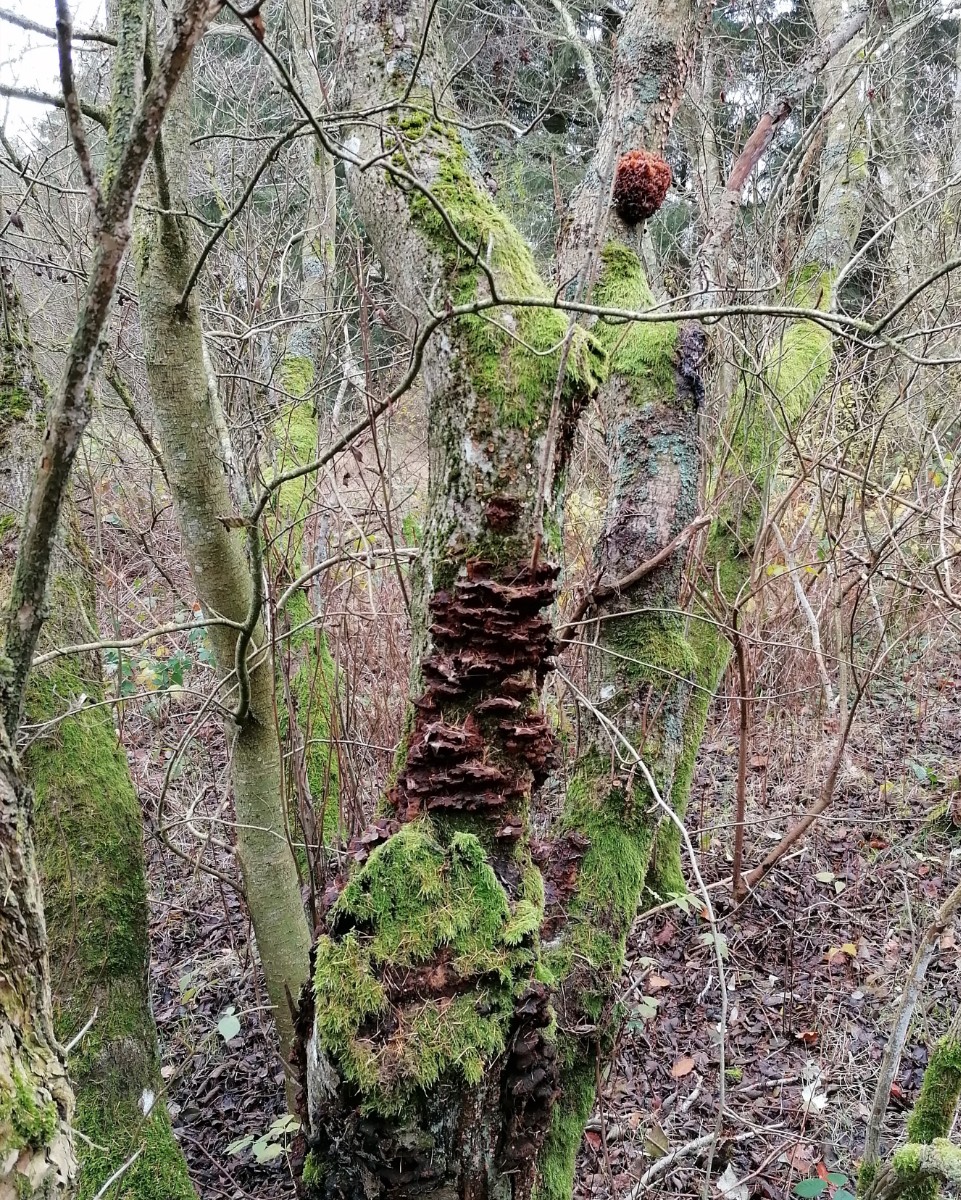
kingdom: Fungi
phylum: Basidiomycota
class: Tremellomycetes
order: Tremellales
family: Tremellaceae
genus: Phaeotremella
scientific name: Phaeotremella frondosa
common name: kæmpe-bævresvamp
